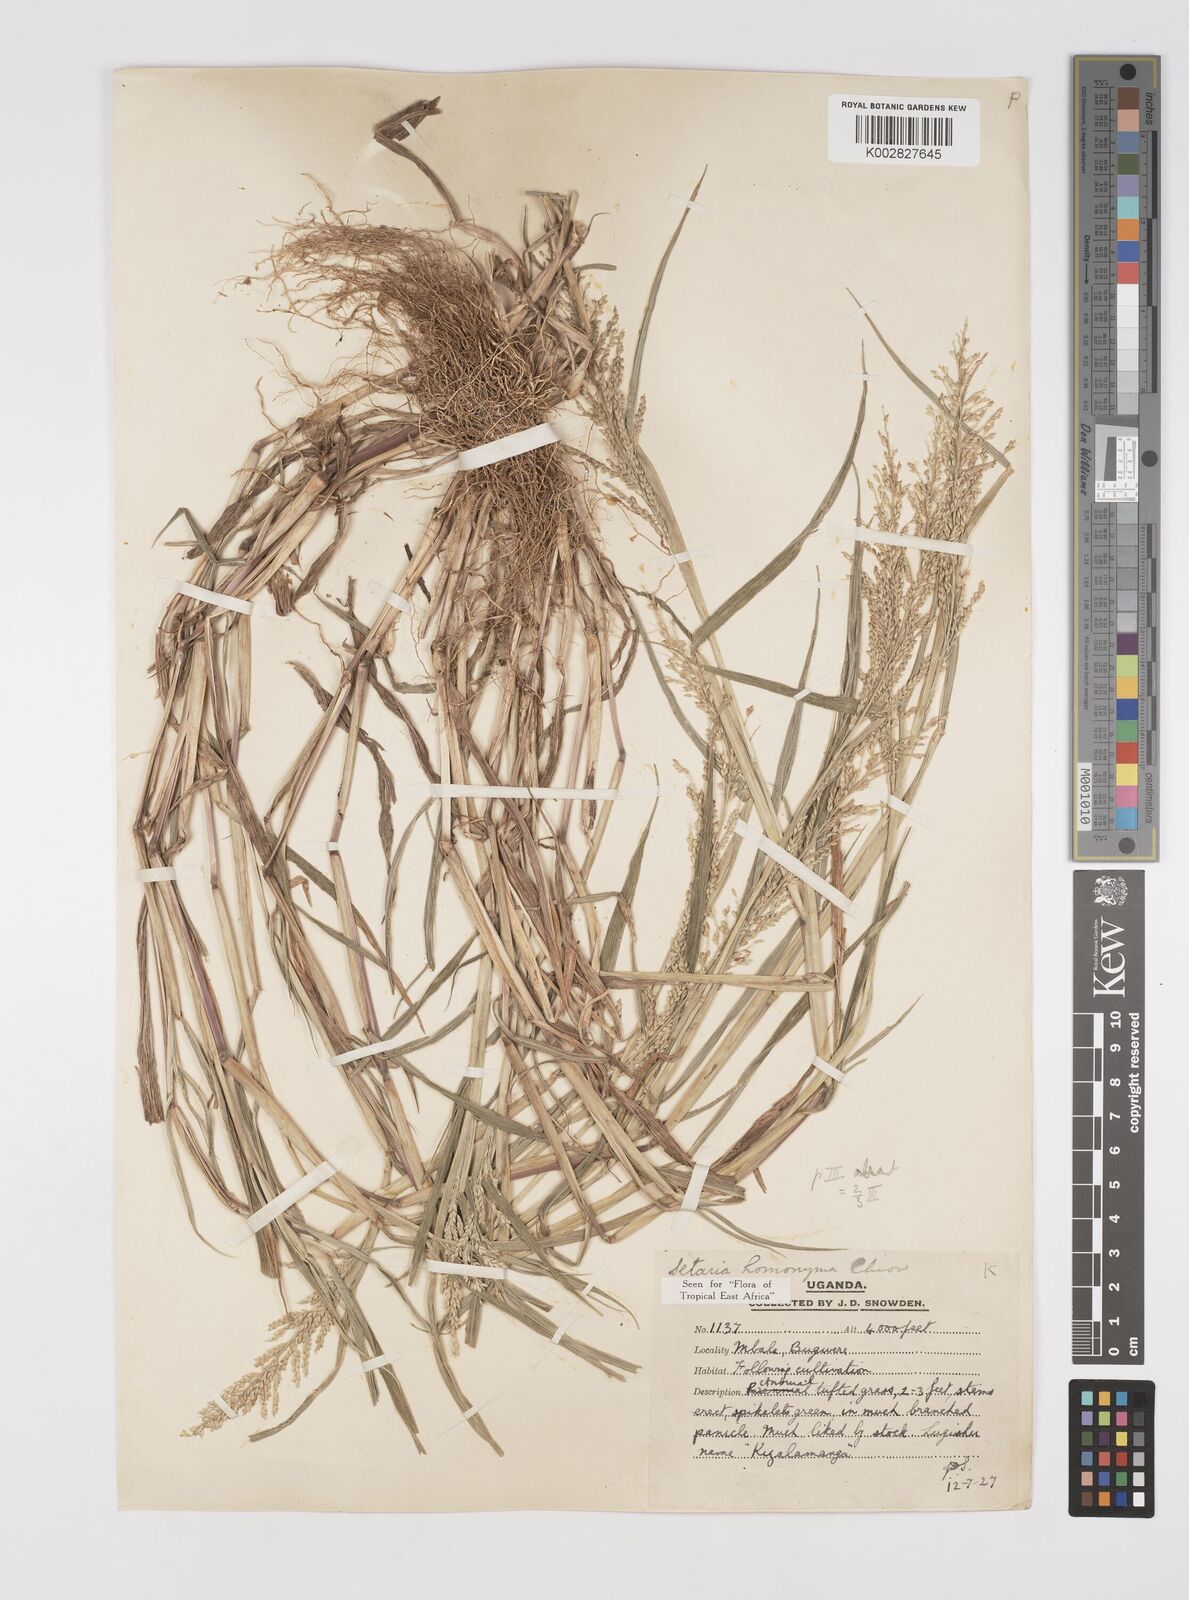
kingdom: Plantae
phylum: Tracheophyta
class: Liliopsida
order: Poales
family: Poaceae
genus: Setaria
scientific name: Setaria homonyma
